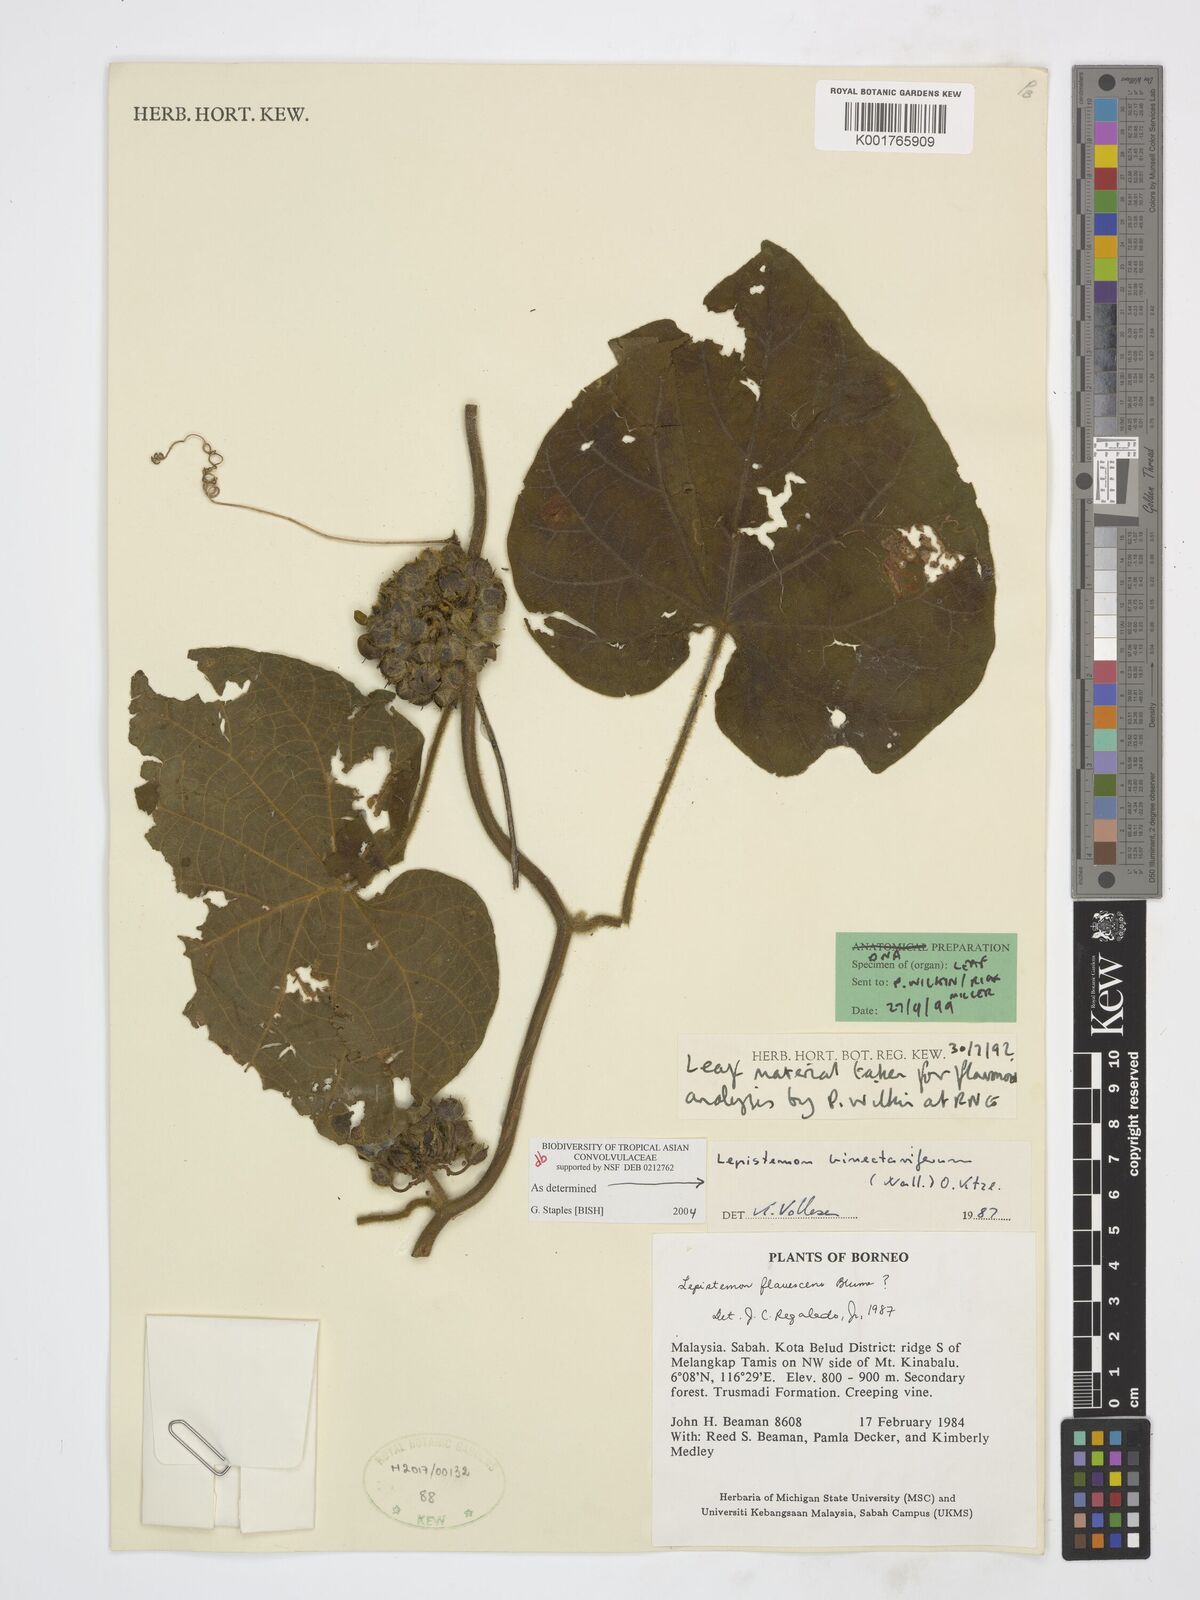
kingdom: Plantae
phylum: Tracheophyta
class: Magnoliopsida
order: Solanales
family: Convolvulaceae
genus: Lepistemon
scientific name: Lepistemon
